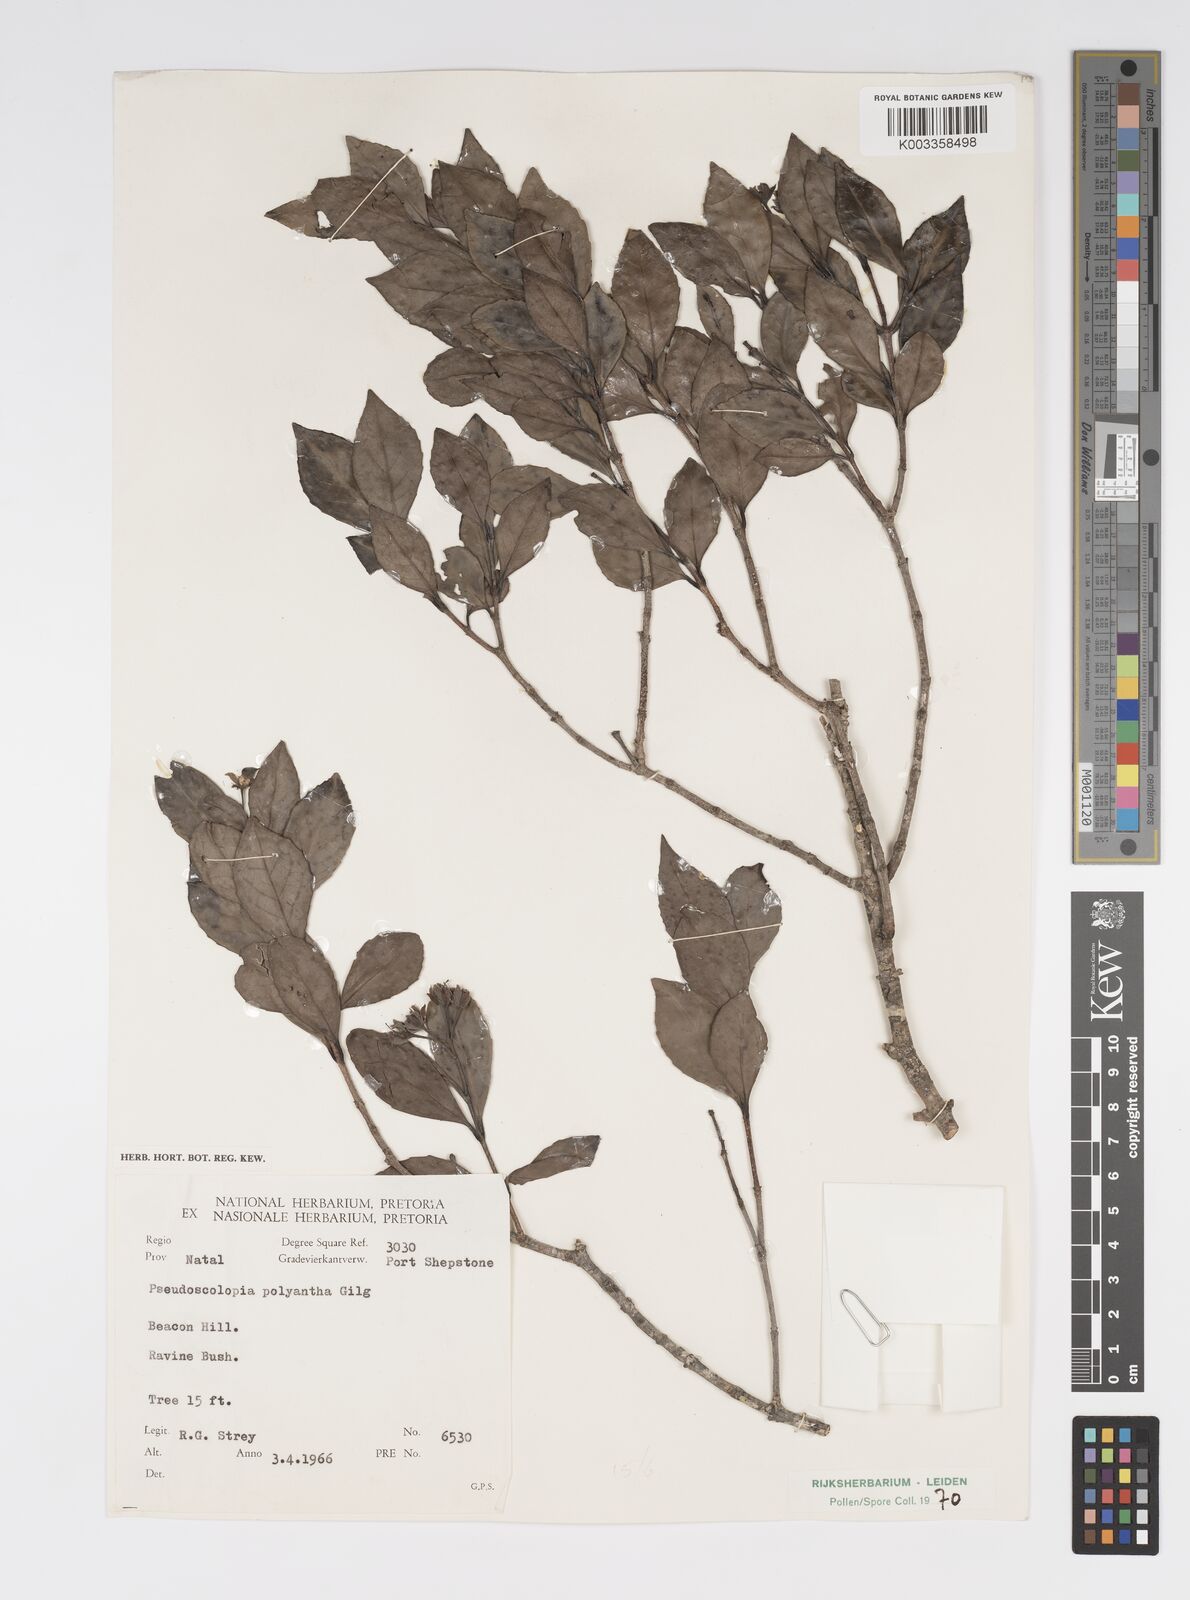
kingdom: Plantae
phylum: Tracheophyta
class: Magnoliopsida
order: Malpighiales
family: Salicaceae
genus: Pseudoscolopia
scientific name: Pseudoscolopia polyantha
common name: Sandstone red-stem
